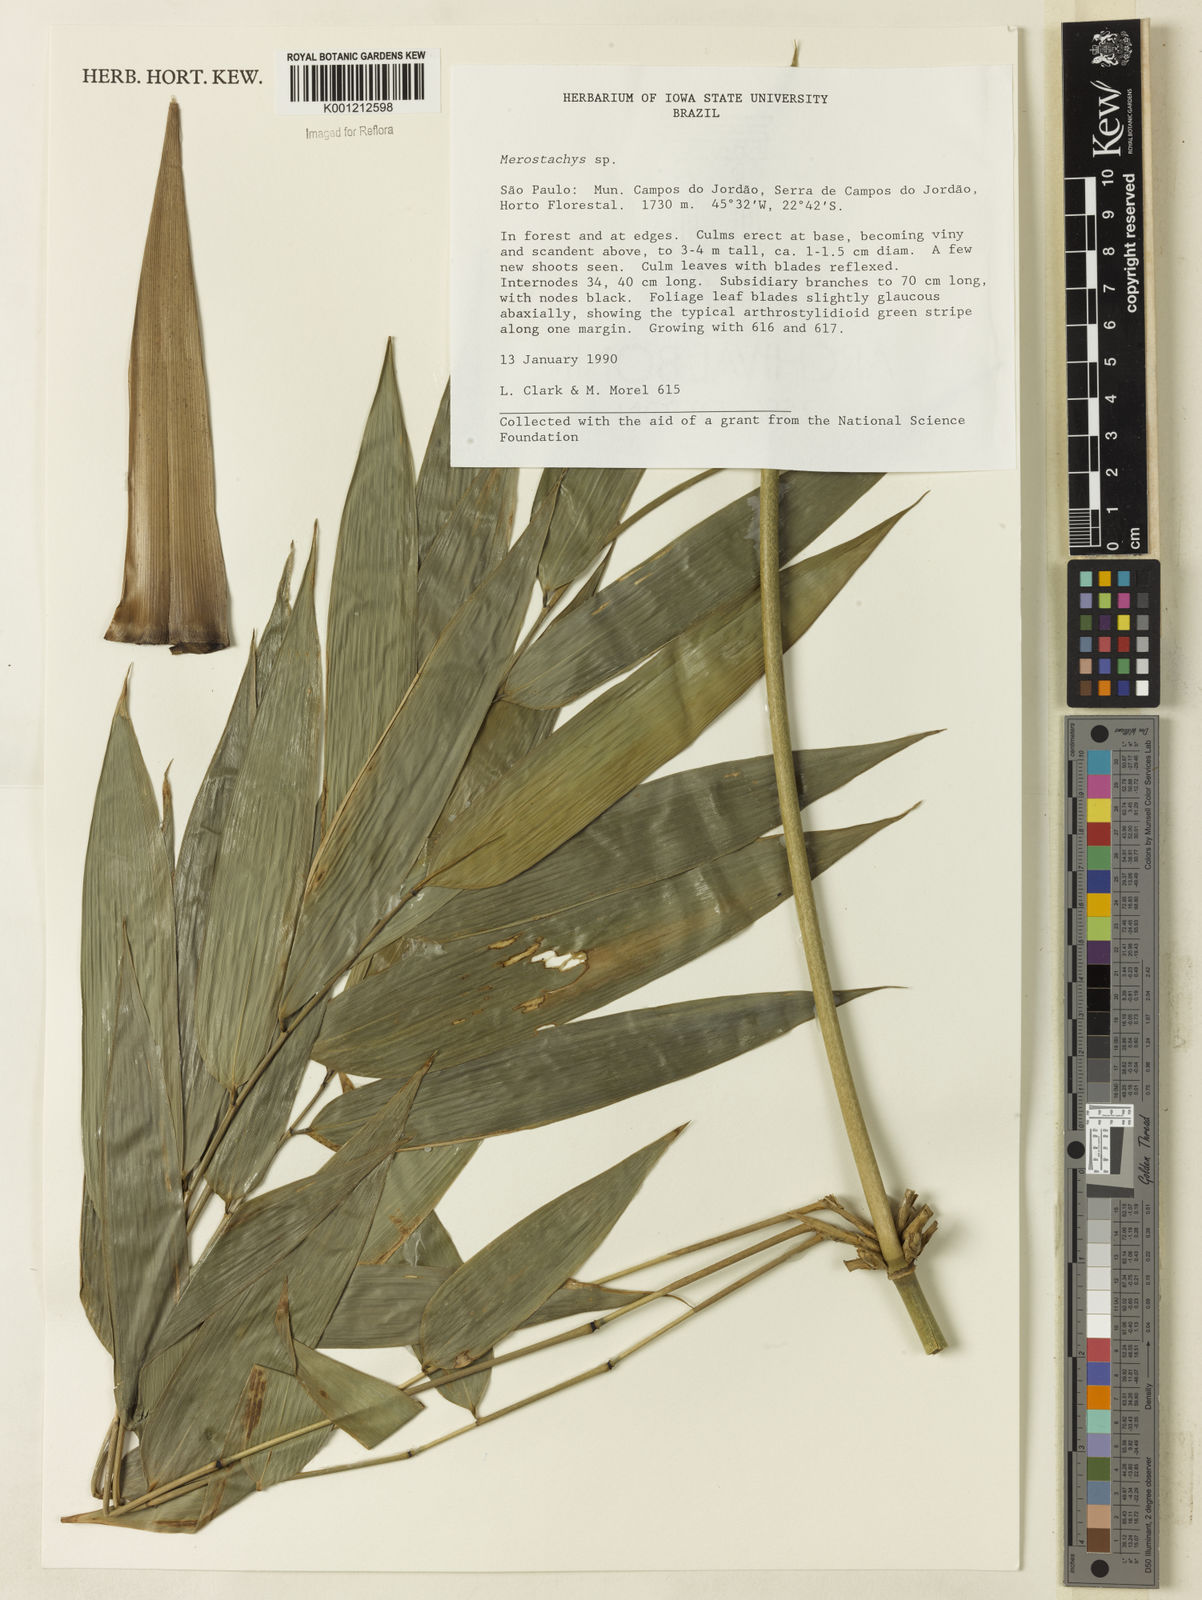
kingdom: Plantae
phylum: Tracheophyta
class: Liliopsida
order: Poales
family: Poaceae
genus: Merostachys
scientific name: Merostachys
